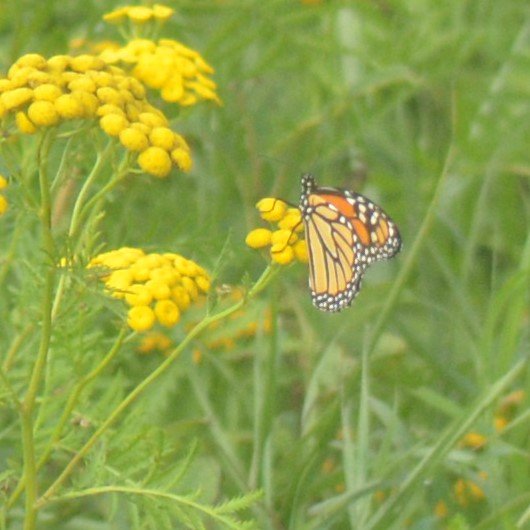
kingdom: Animalia
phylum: Arthropoda
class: Insecta
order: Lepidoptera
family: Nymphalidae
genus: Danaus
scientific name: Danaus plexippus
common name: Monarch
